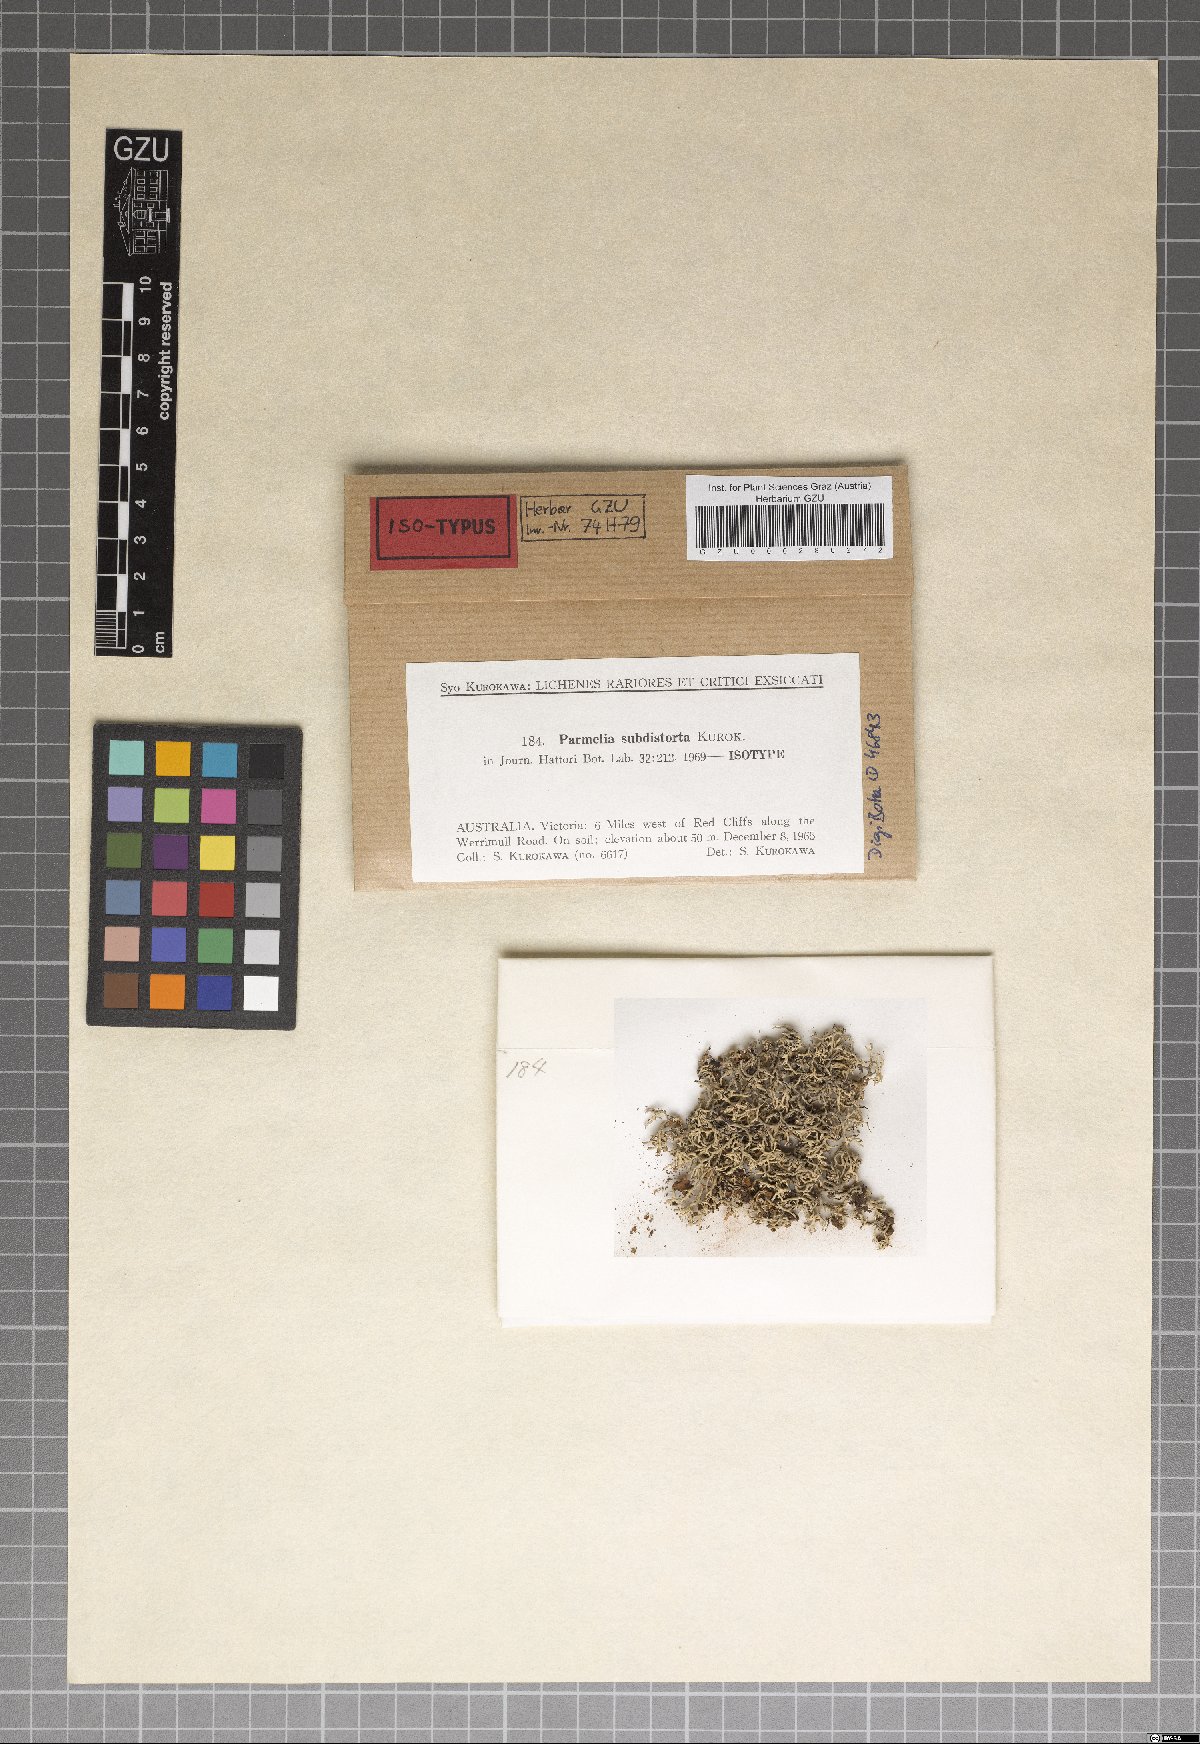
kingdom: Fungi
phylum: Ascomycota
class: Lecanoromycetes
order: Lecanorales
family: Parmeliaceae
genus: Parmelinella
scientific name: Parmelinella
